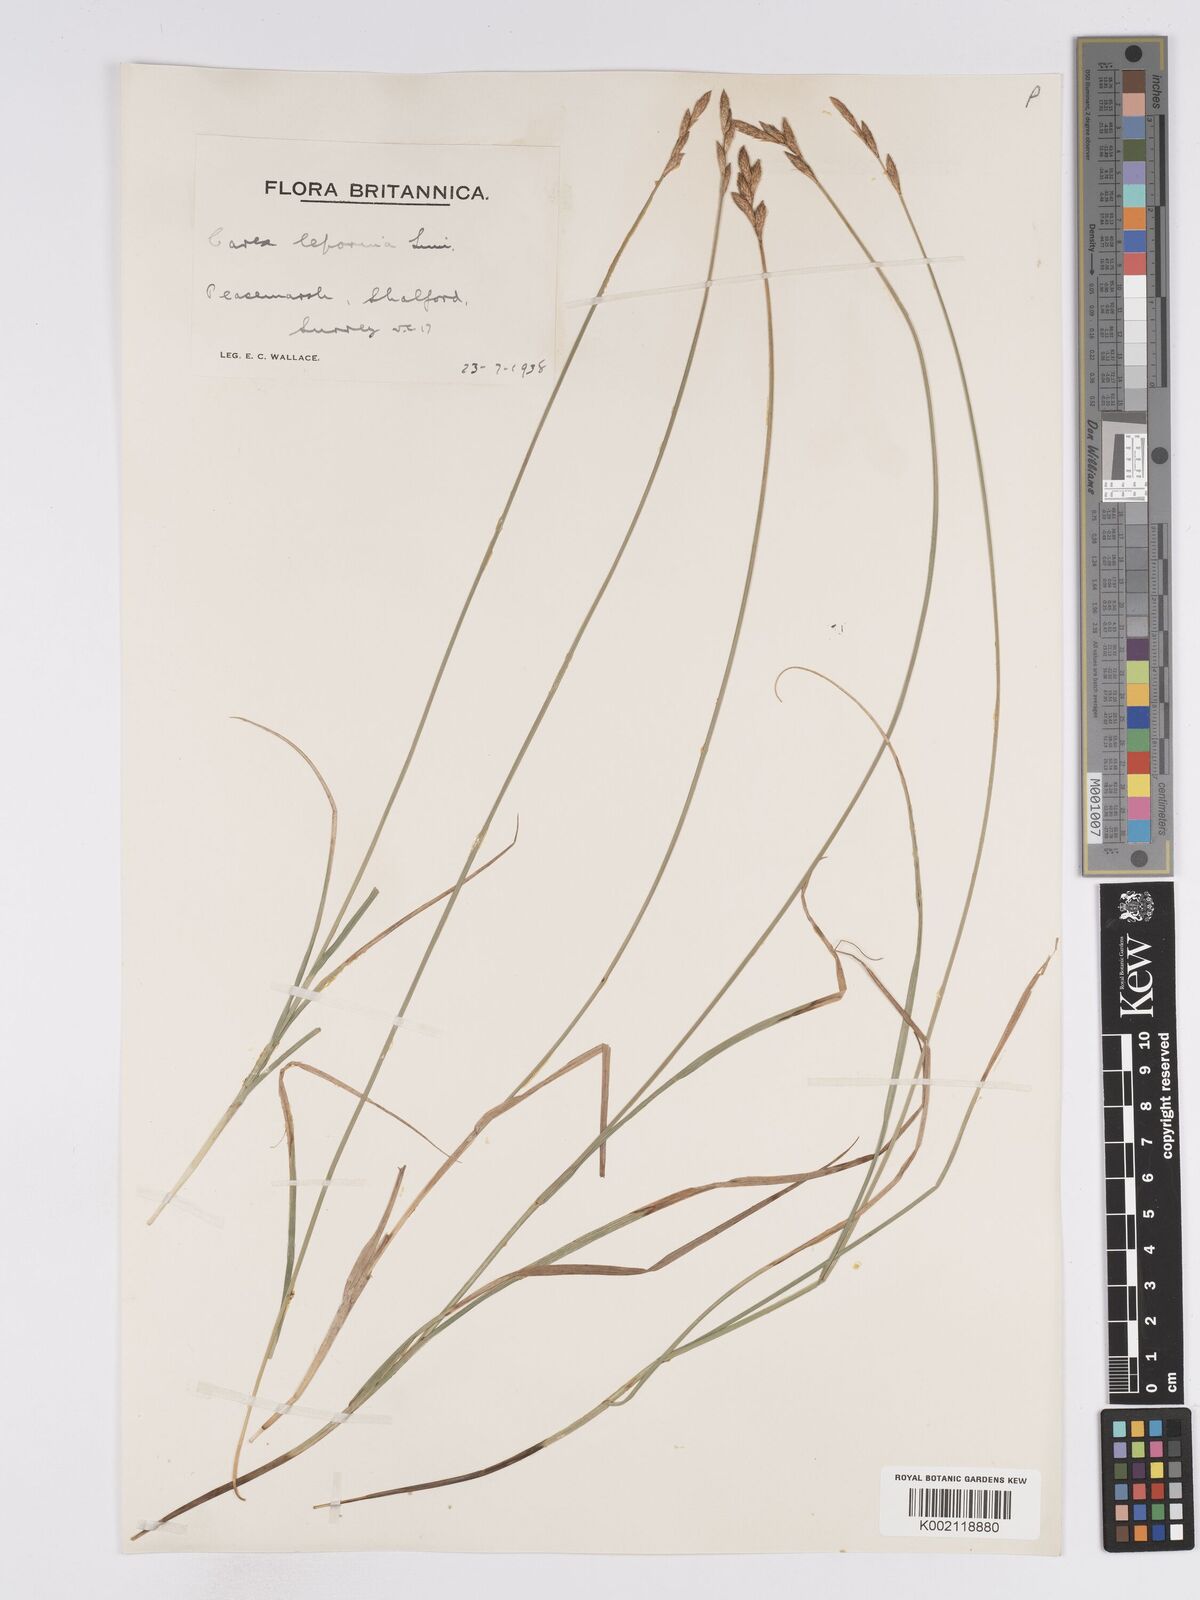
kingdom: Plantae
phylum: Tracheophyta
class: Liliopsida
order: Poales
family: Cyperaceae
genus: Carex
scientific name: Carex leporina
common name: Oval sedge
